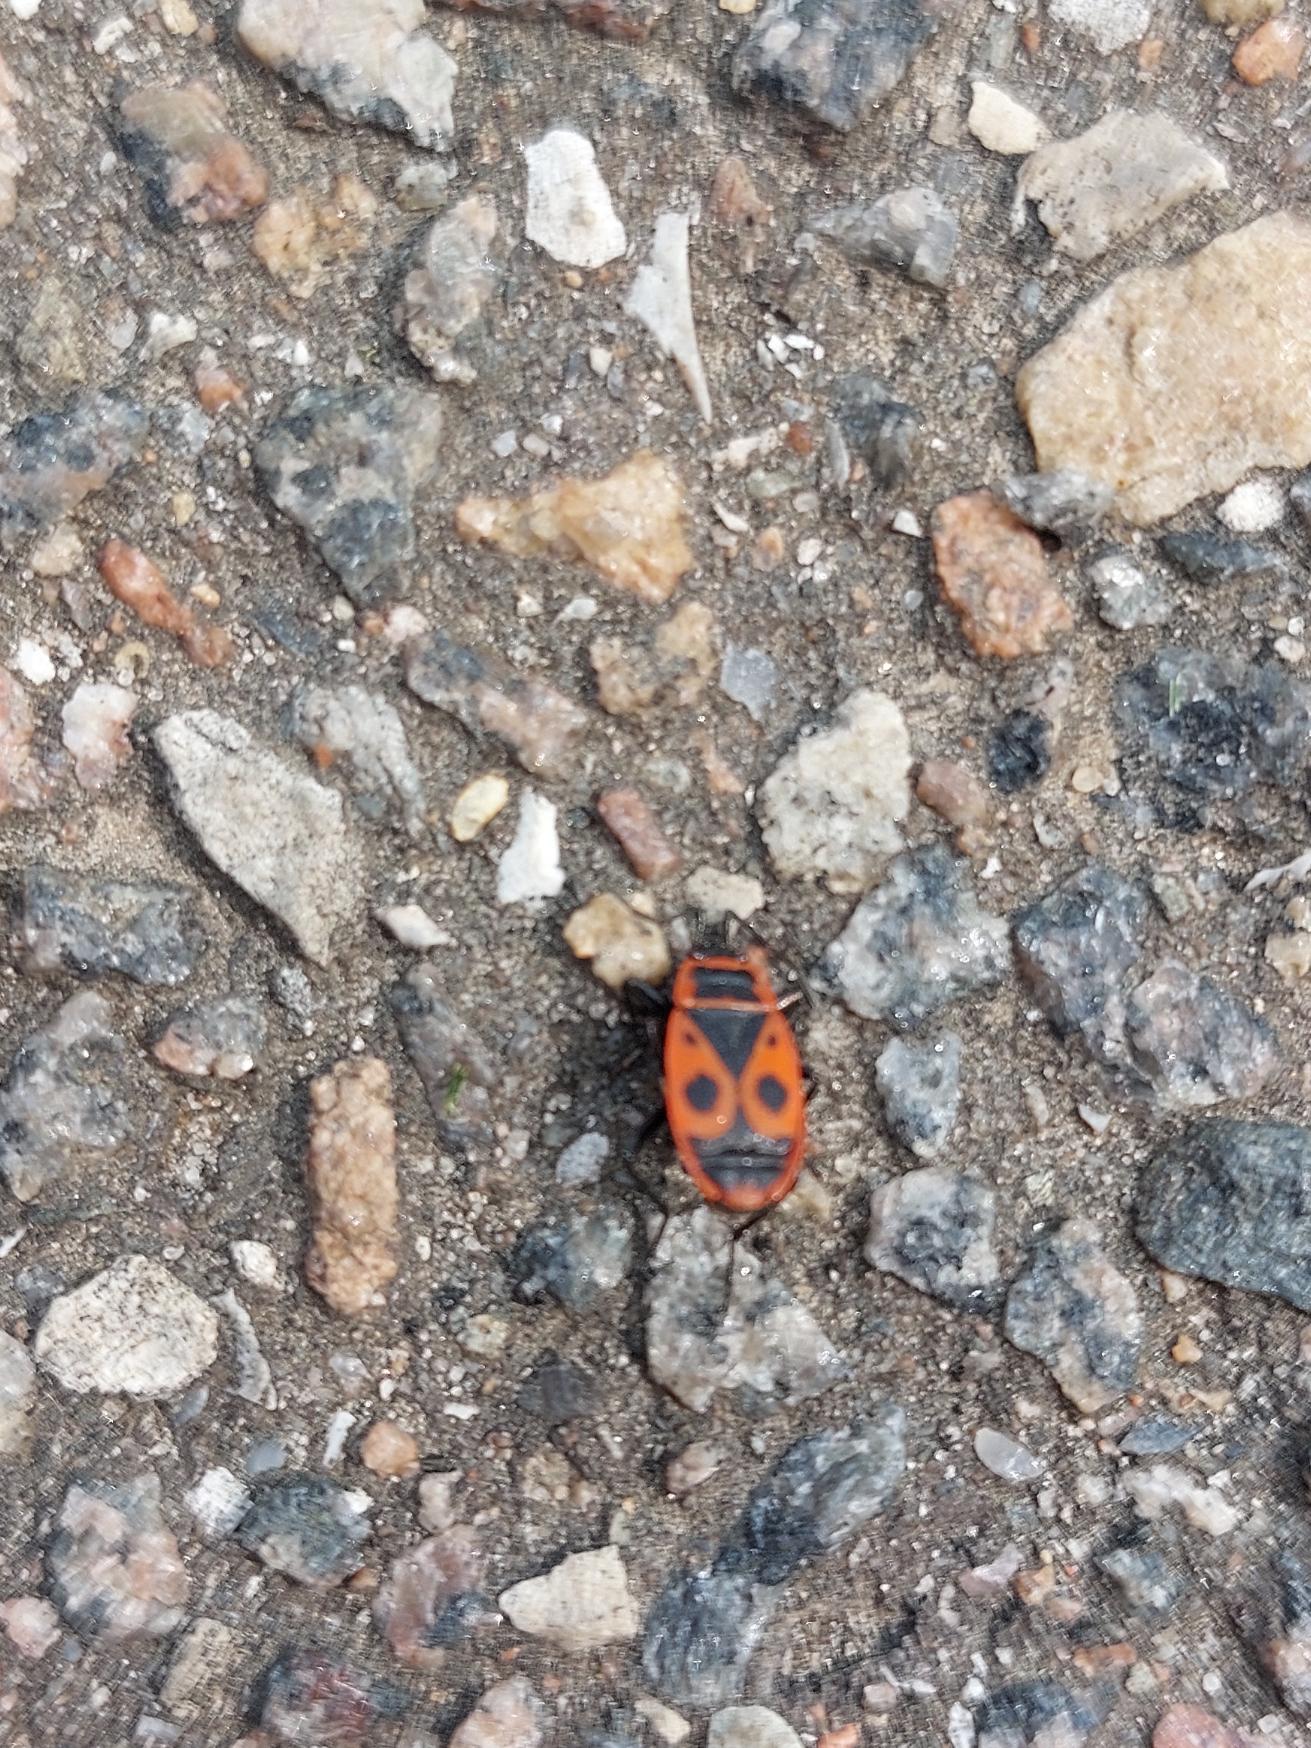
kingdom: Animalia
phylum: Arthropoda
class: Insecta
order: Hemiptera
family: Pyrrhocoridae
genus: Pyrrhocoris
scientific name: Pyrrhocoris apterus
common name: Ildtæge
